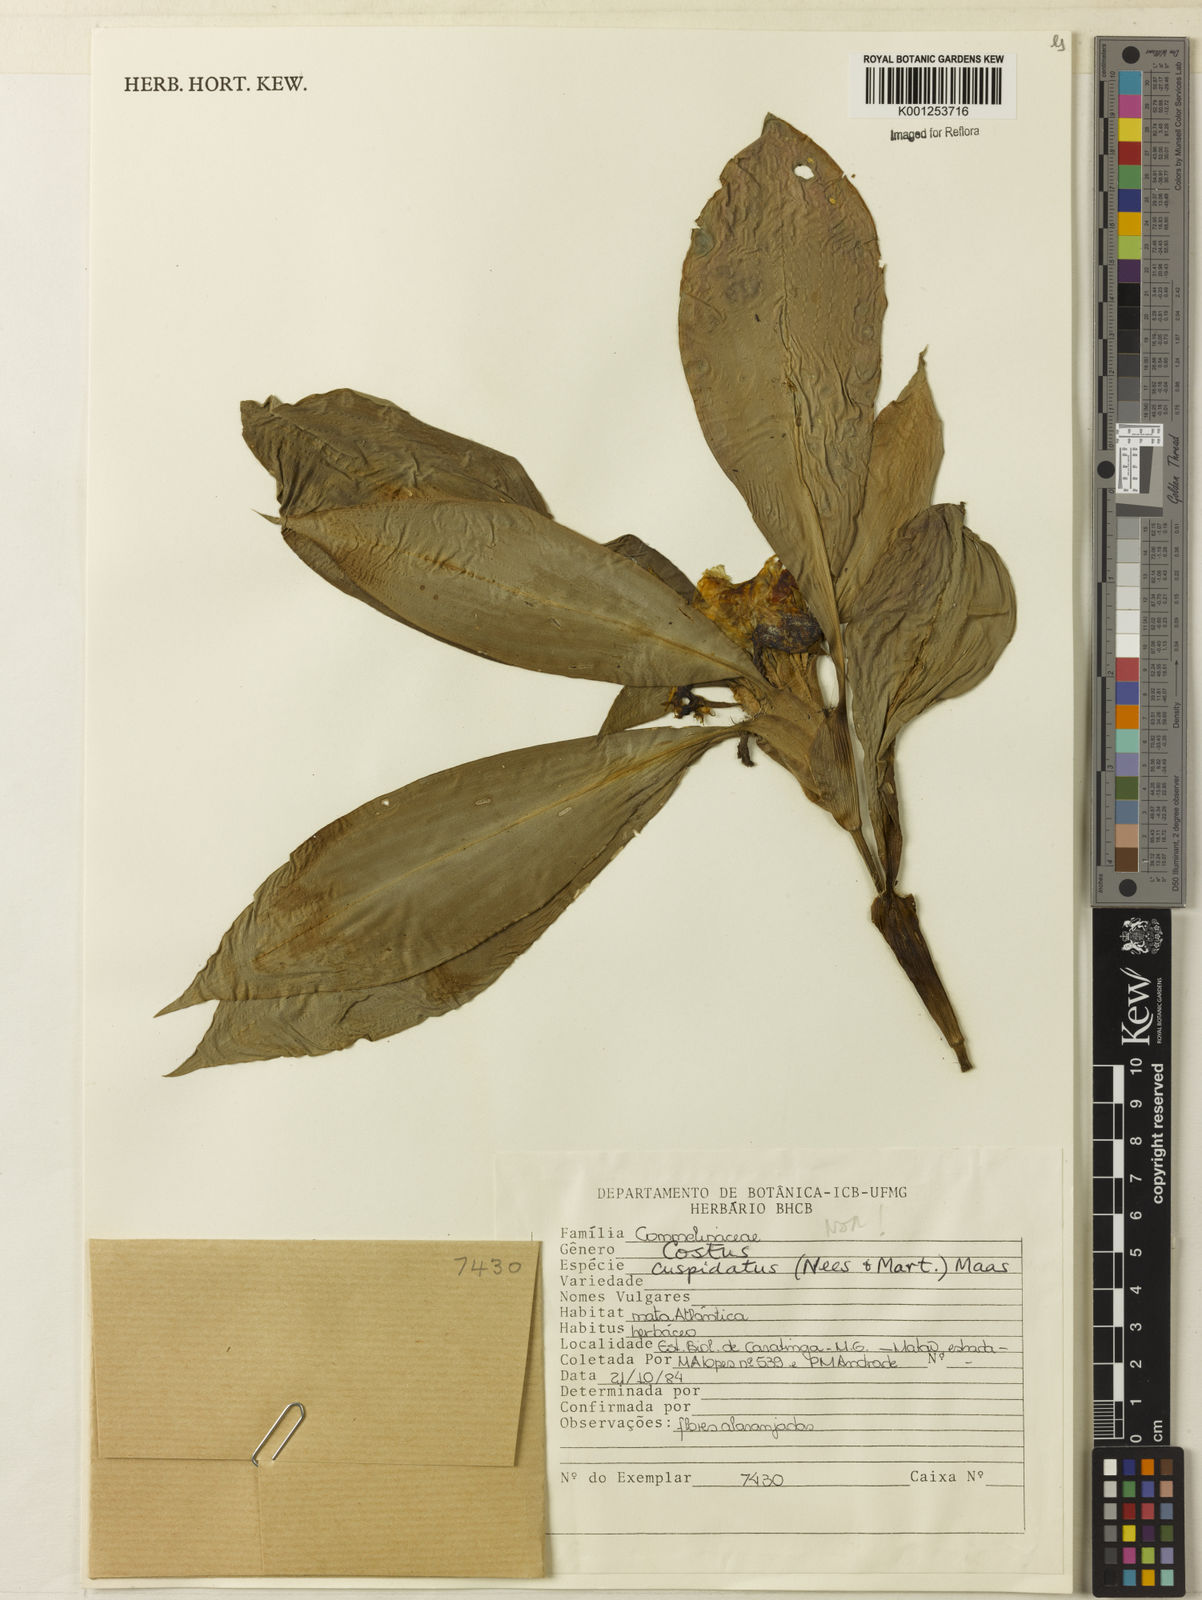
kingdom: Plantae
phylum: Tracheophyta
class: Liliopsida
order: Zingiberales
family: Costaceae
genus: Chamaecostus
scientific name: Chamaecostus cuspidatus
